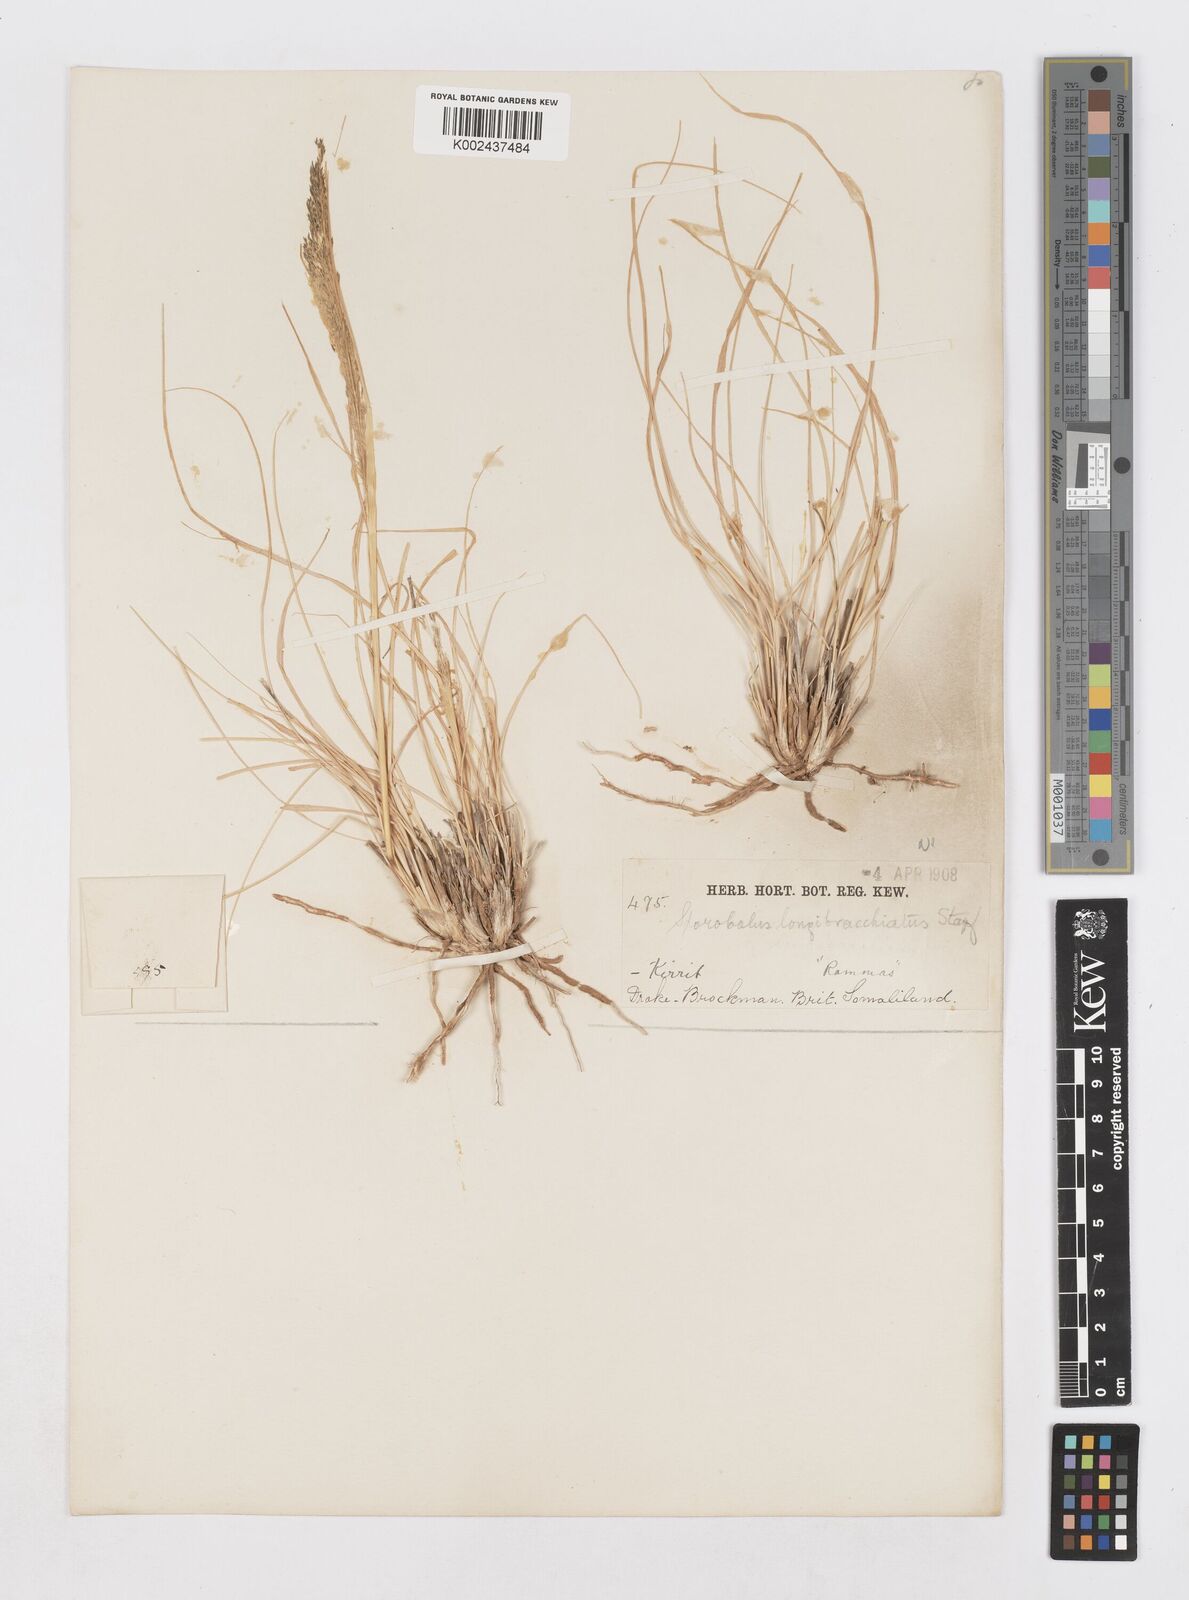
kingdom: Plantae
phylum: Tracheophyta
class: Liliopsida
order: Poales
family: Poaceae
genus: Sporobolus
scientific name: Sporobolus nervosus
